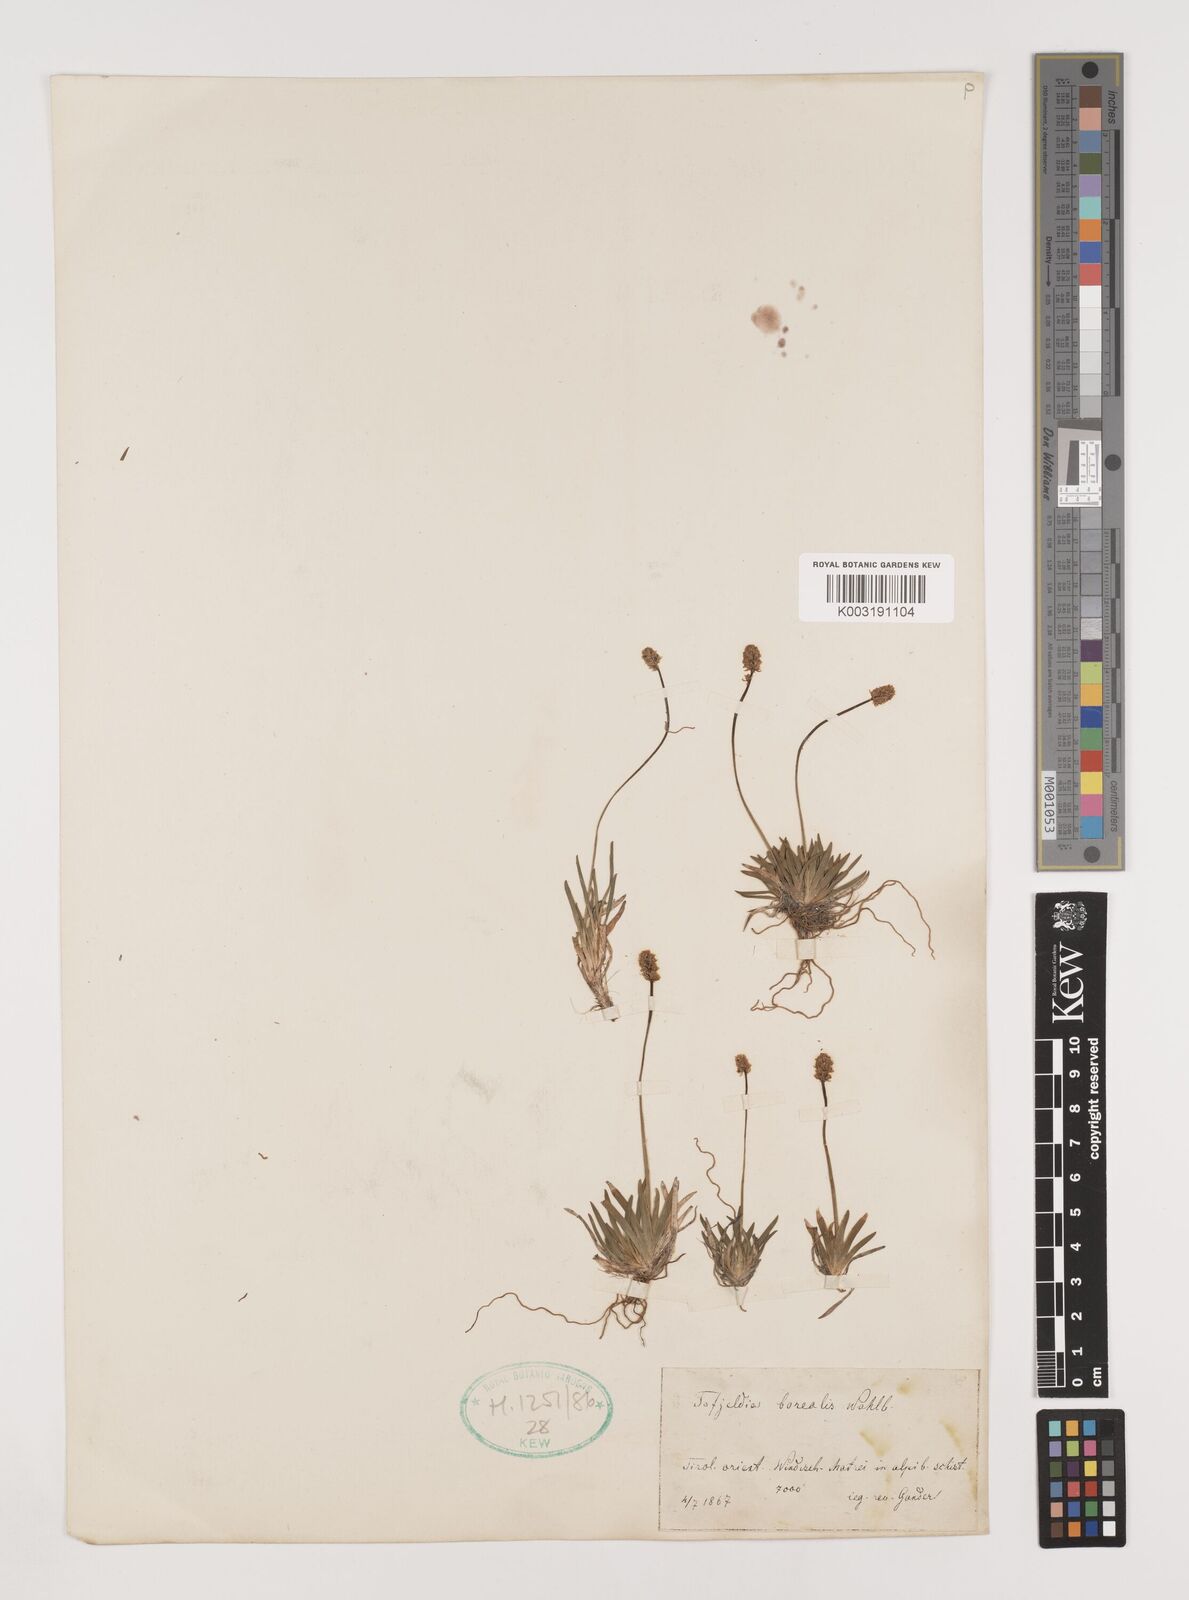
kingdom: Plantae
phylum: Tracheophyta
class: Liliopsida
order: Alismatales
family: Tofieldiaceae
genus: Tofieldia
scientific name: Tofieldia pusilla
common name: Scottish false asphodel
